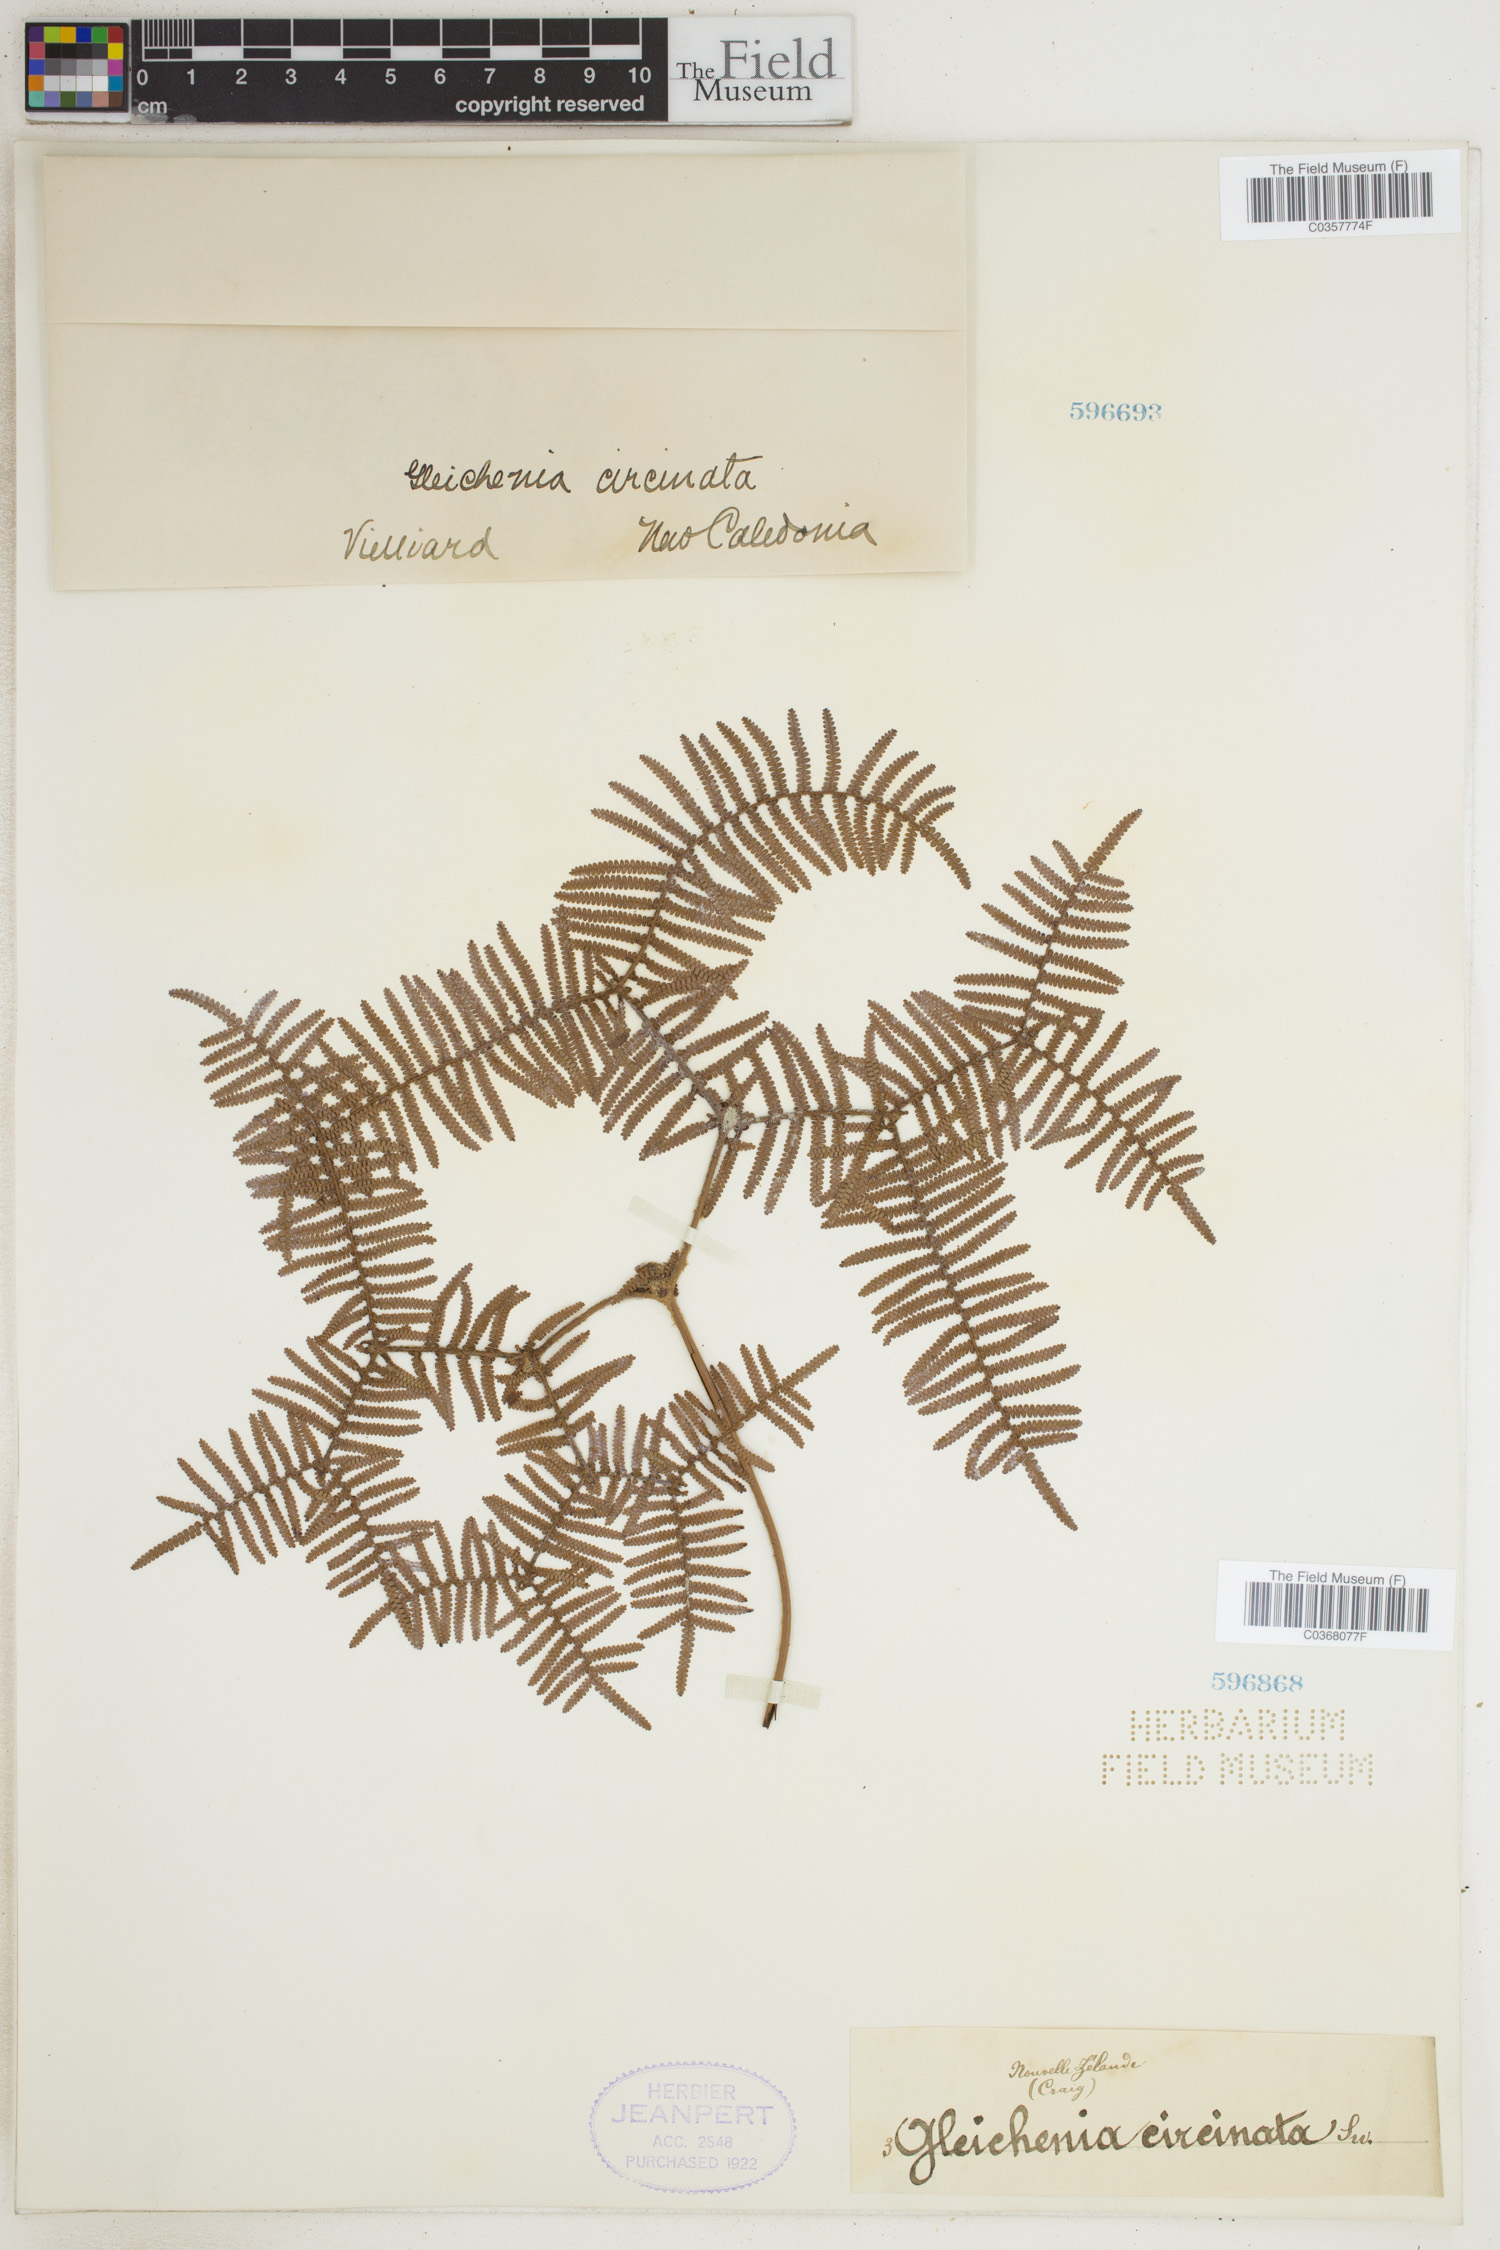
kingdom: Plantae
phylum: Tracheophyta
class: Polypodiopsida
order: Gleicheniales
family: Gleicheniaceae
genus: Gleichenia
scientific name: Gleichenia circinnata
